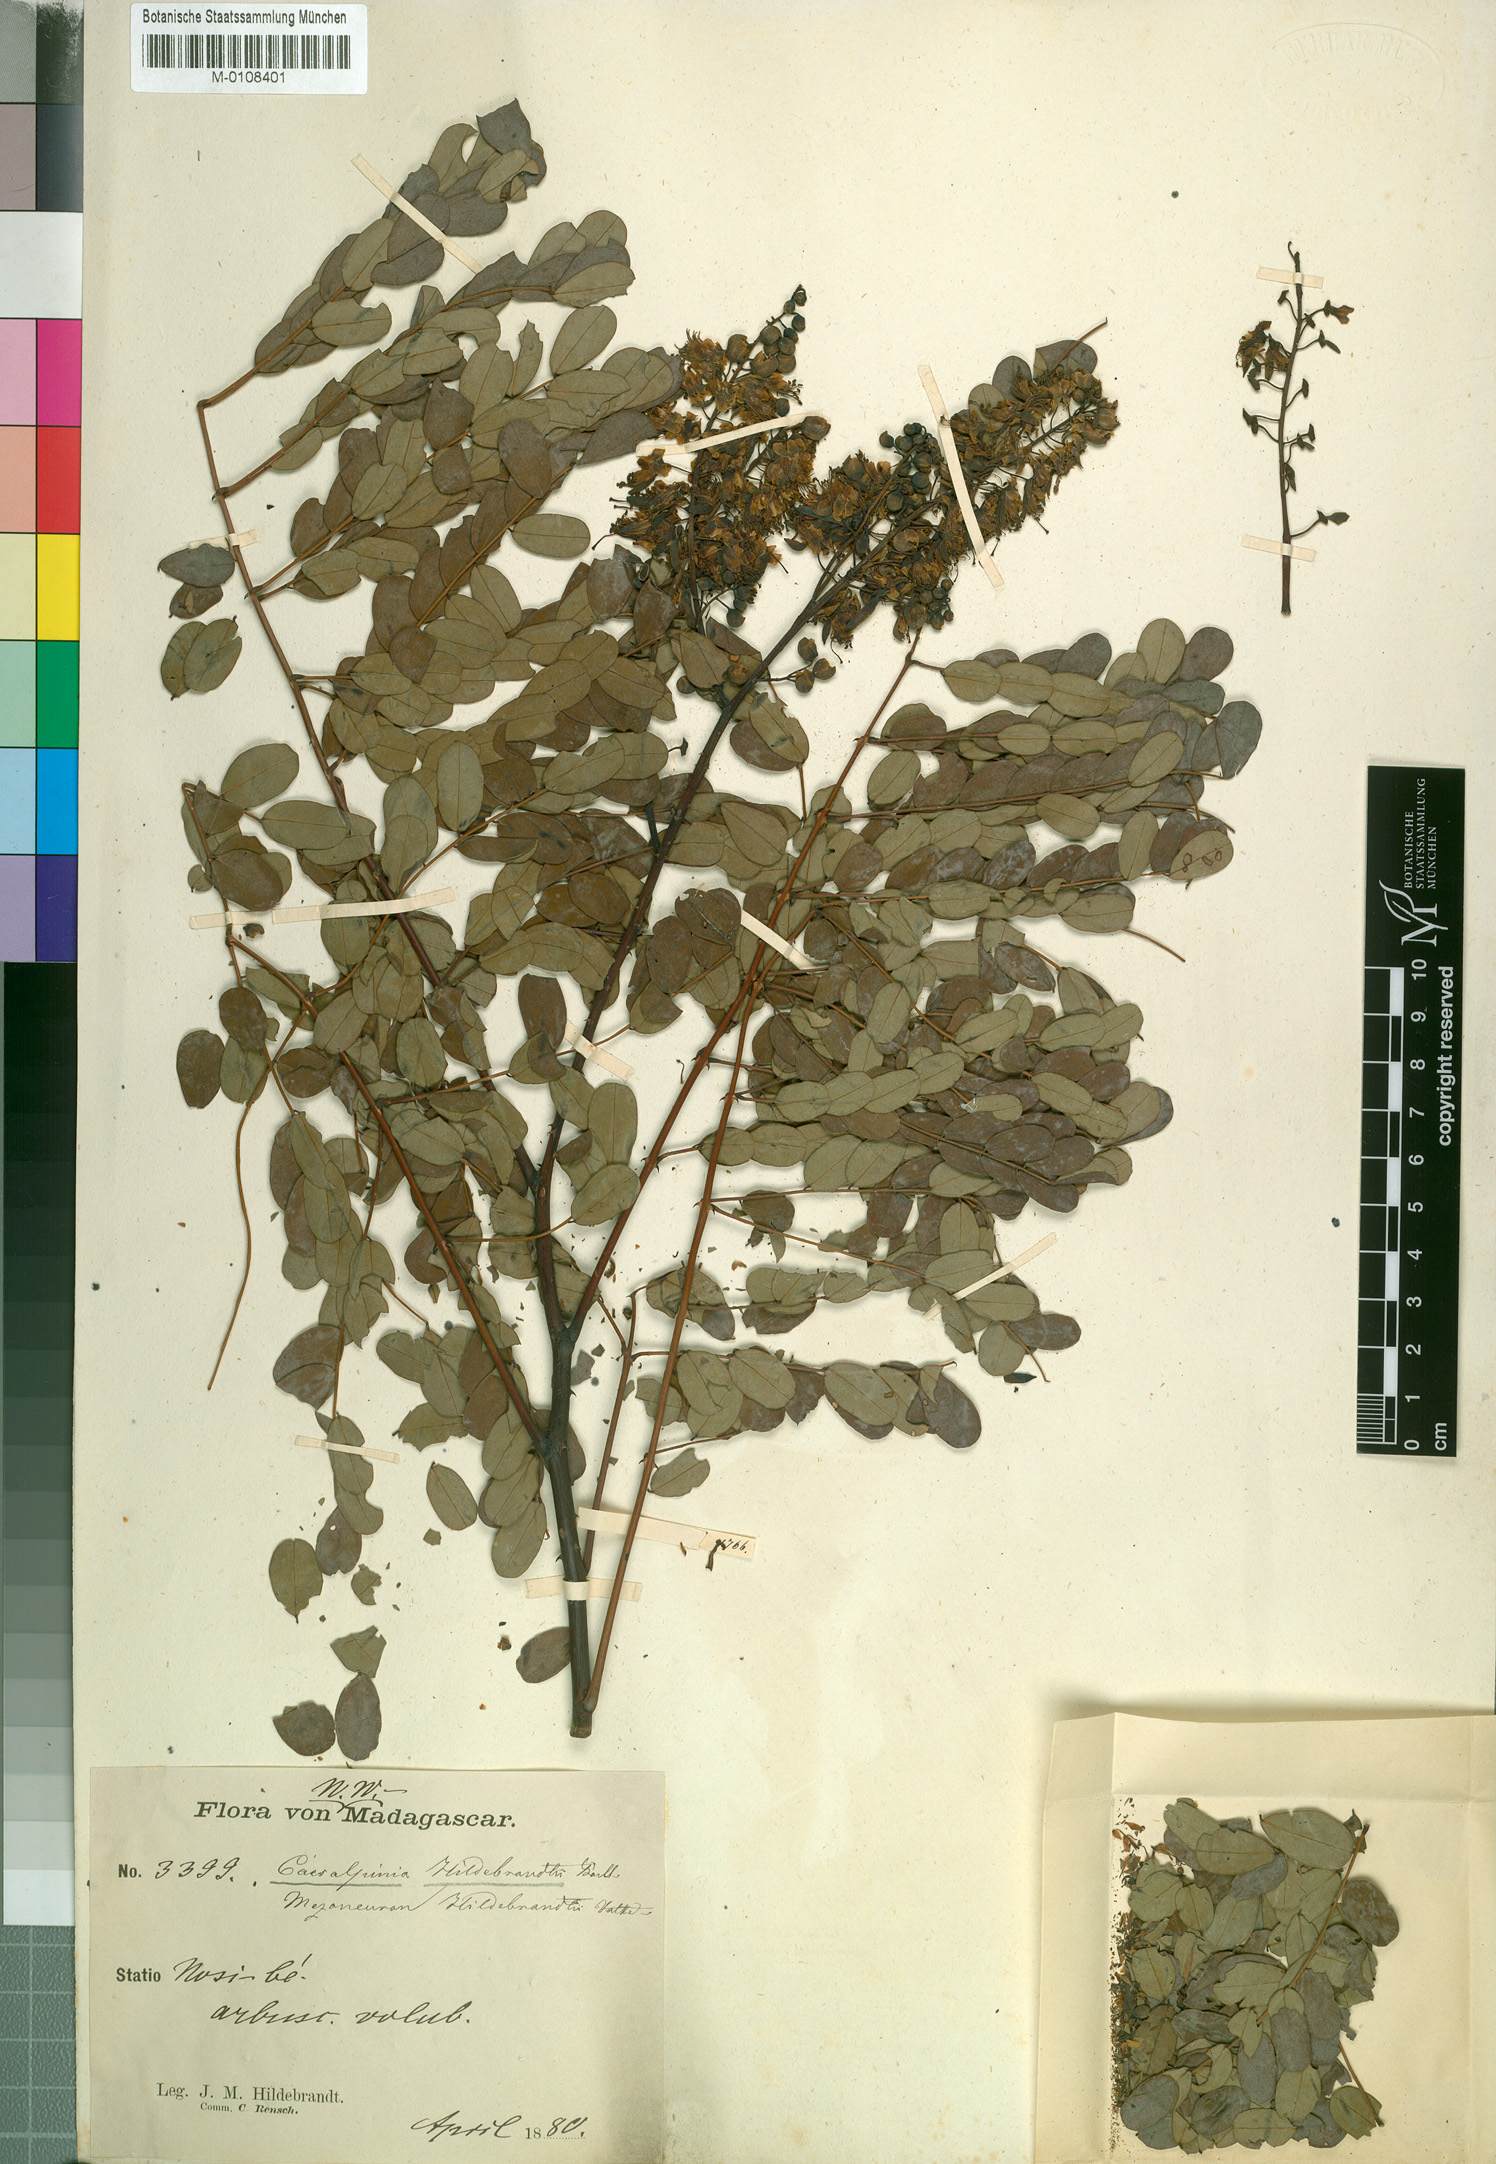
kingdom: Plantae
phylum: Tracheophyta
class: Magnoliopsida
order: Fabales
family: Fabaceae
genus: Mezoneuron
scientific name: Mezoneuron hildebrandtii
